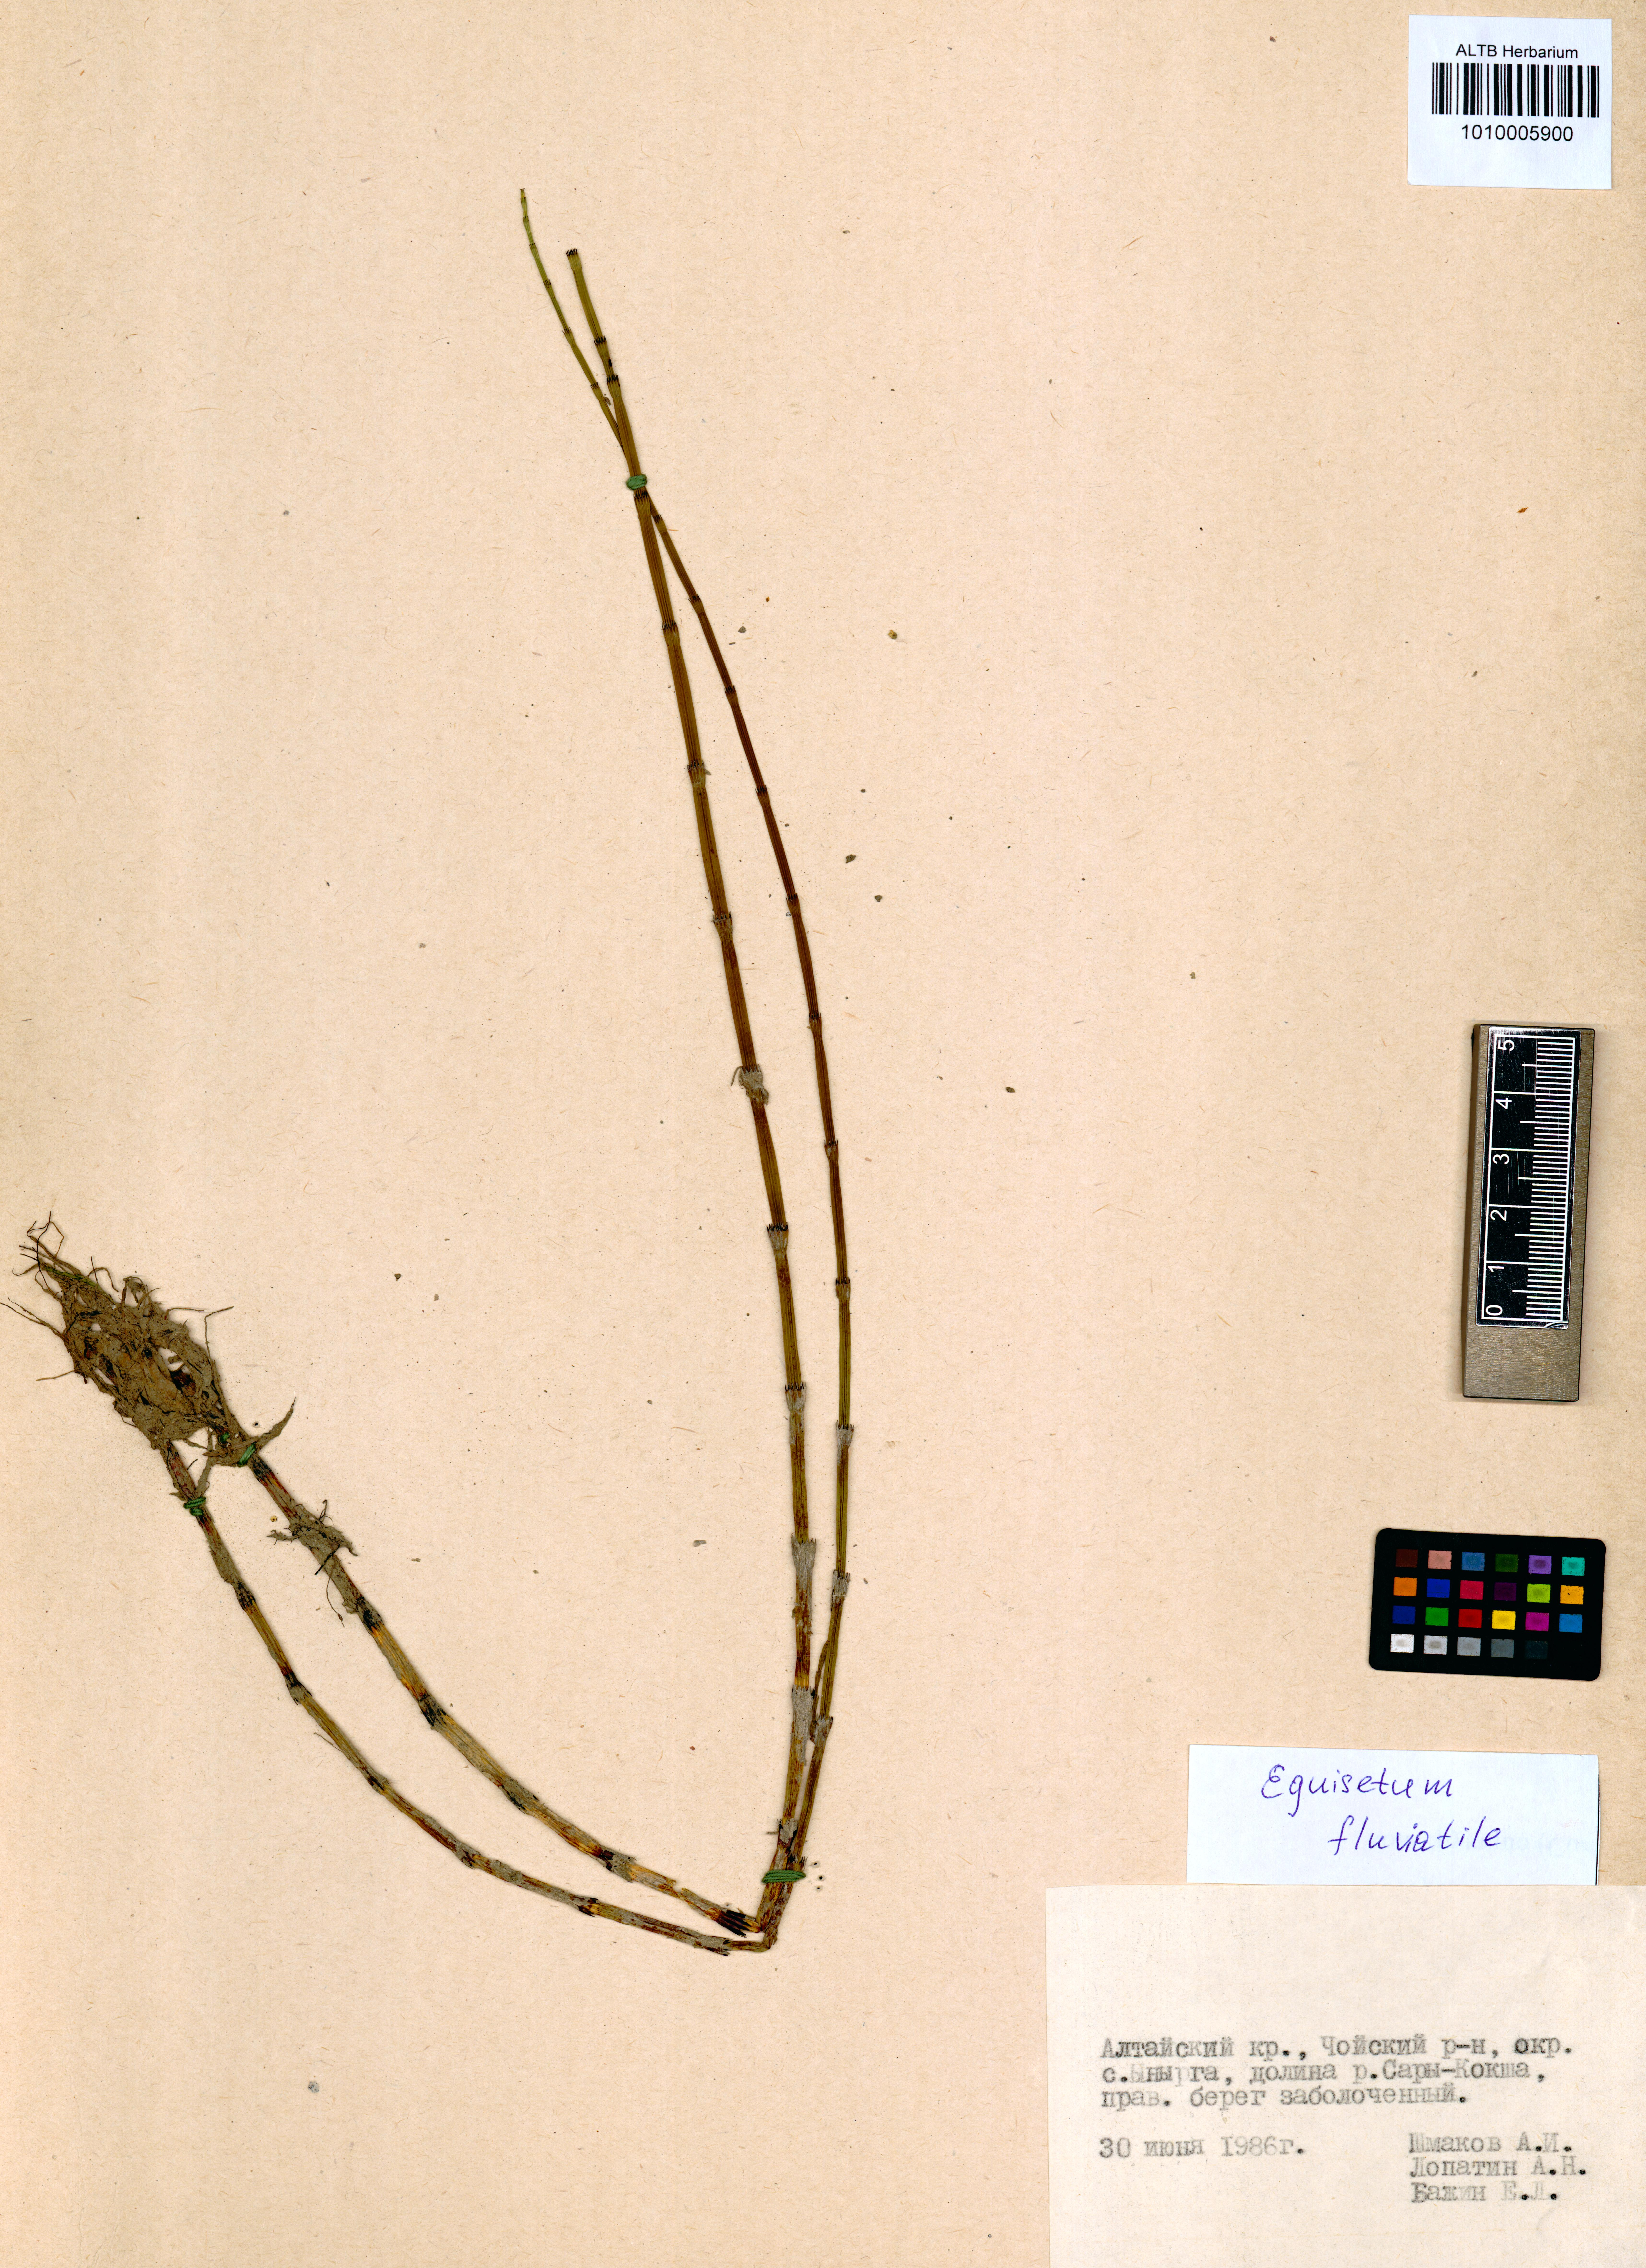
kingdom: Plantae
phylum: Tracheophyta
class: Polypodiopsida
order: Equisetales
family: Equisetaceae
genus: Equisetum
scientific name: Equisetum fluviatile
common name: Water horsetail
